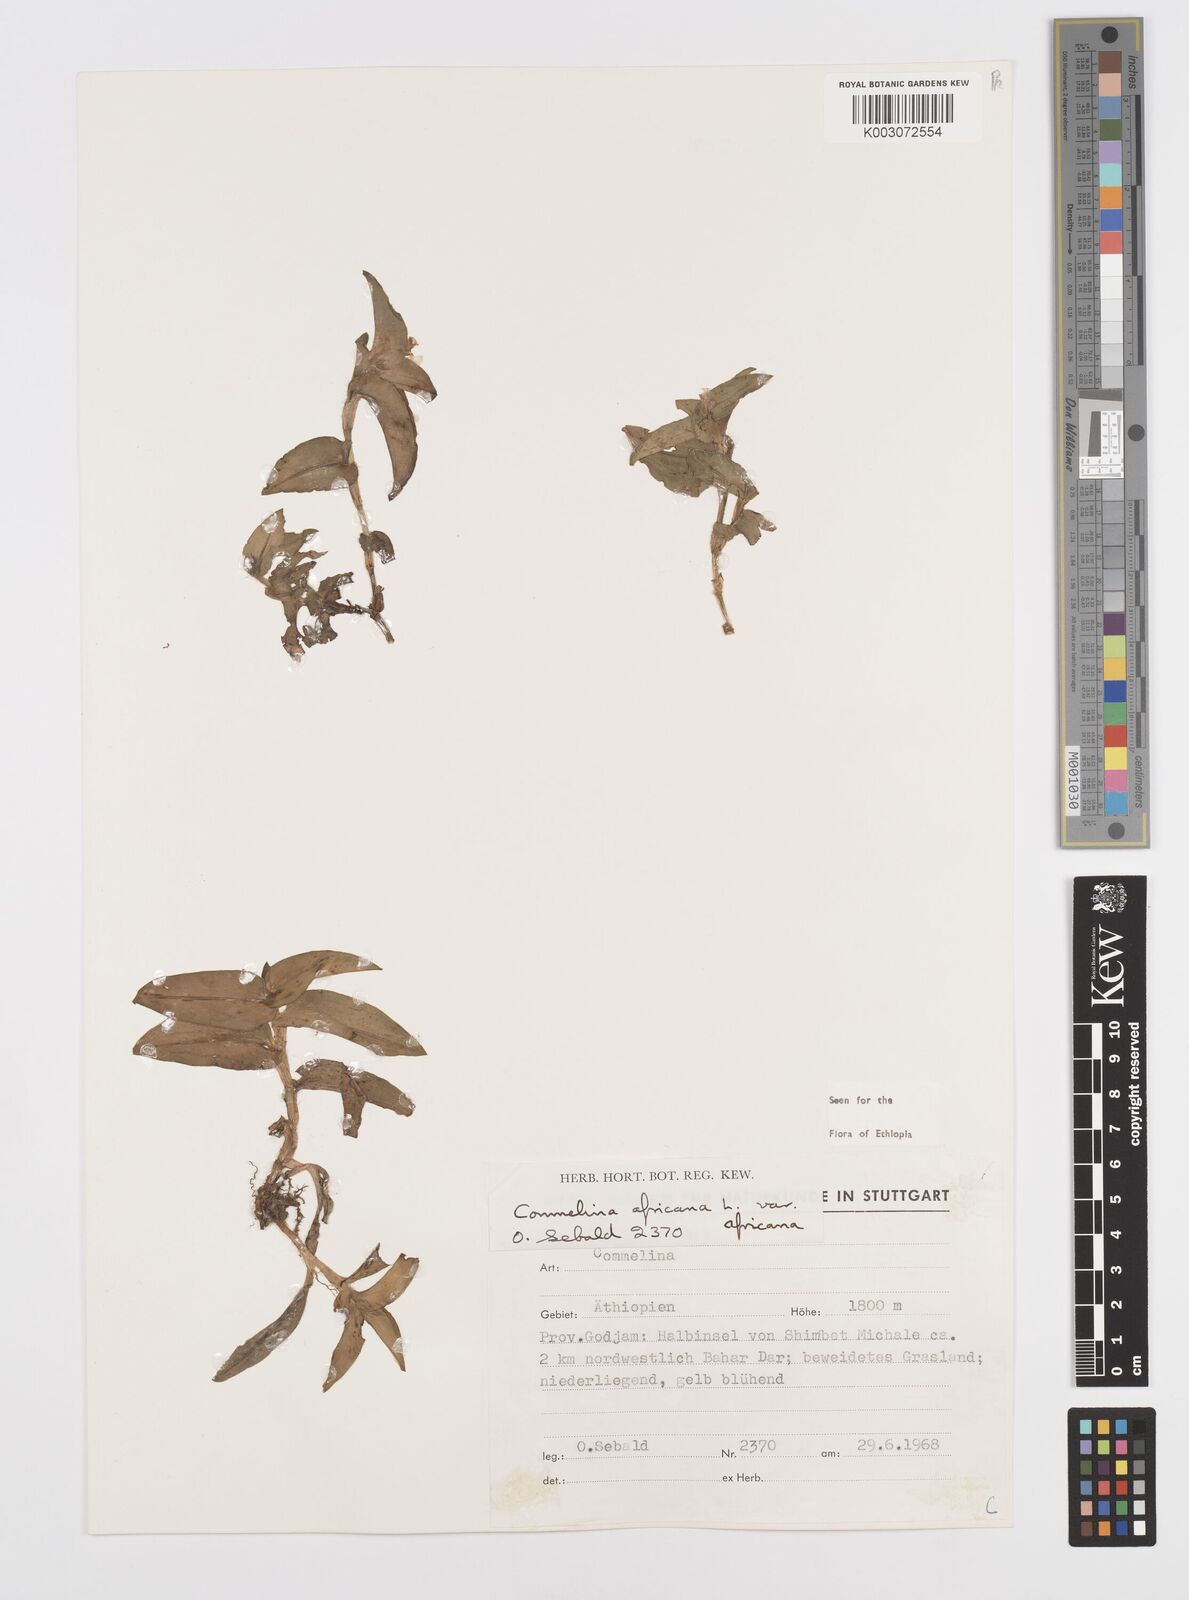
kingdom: Plantae
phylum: Tracheophyta
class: Liliopsida
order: Commelinales
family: Commelinaceae
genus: Commelina
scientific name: Commelina africana
